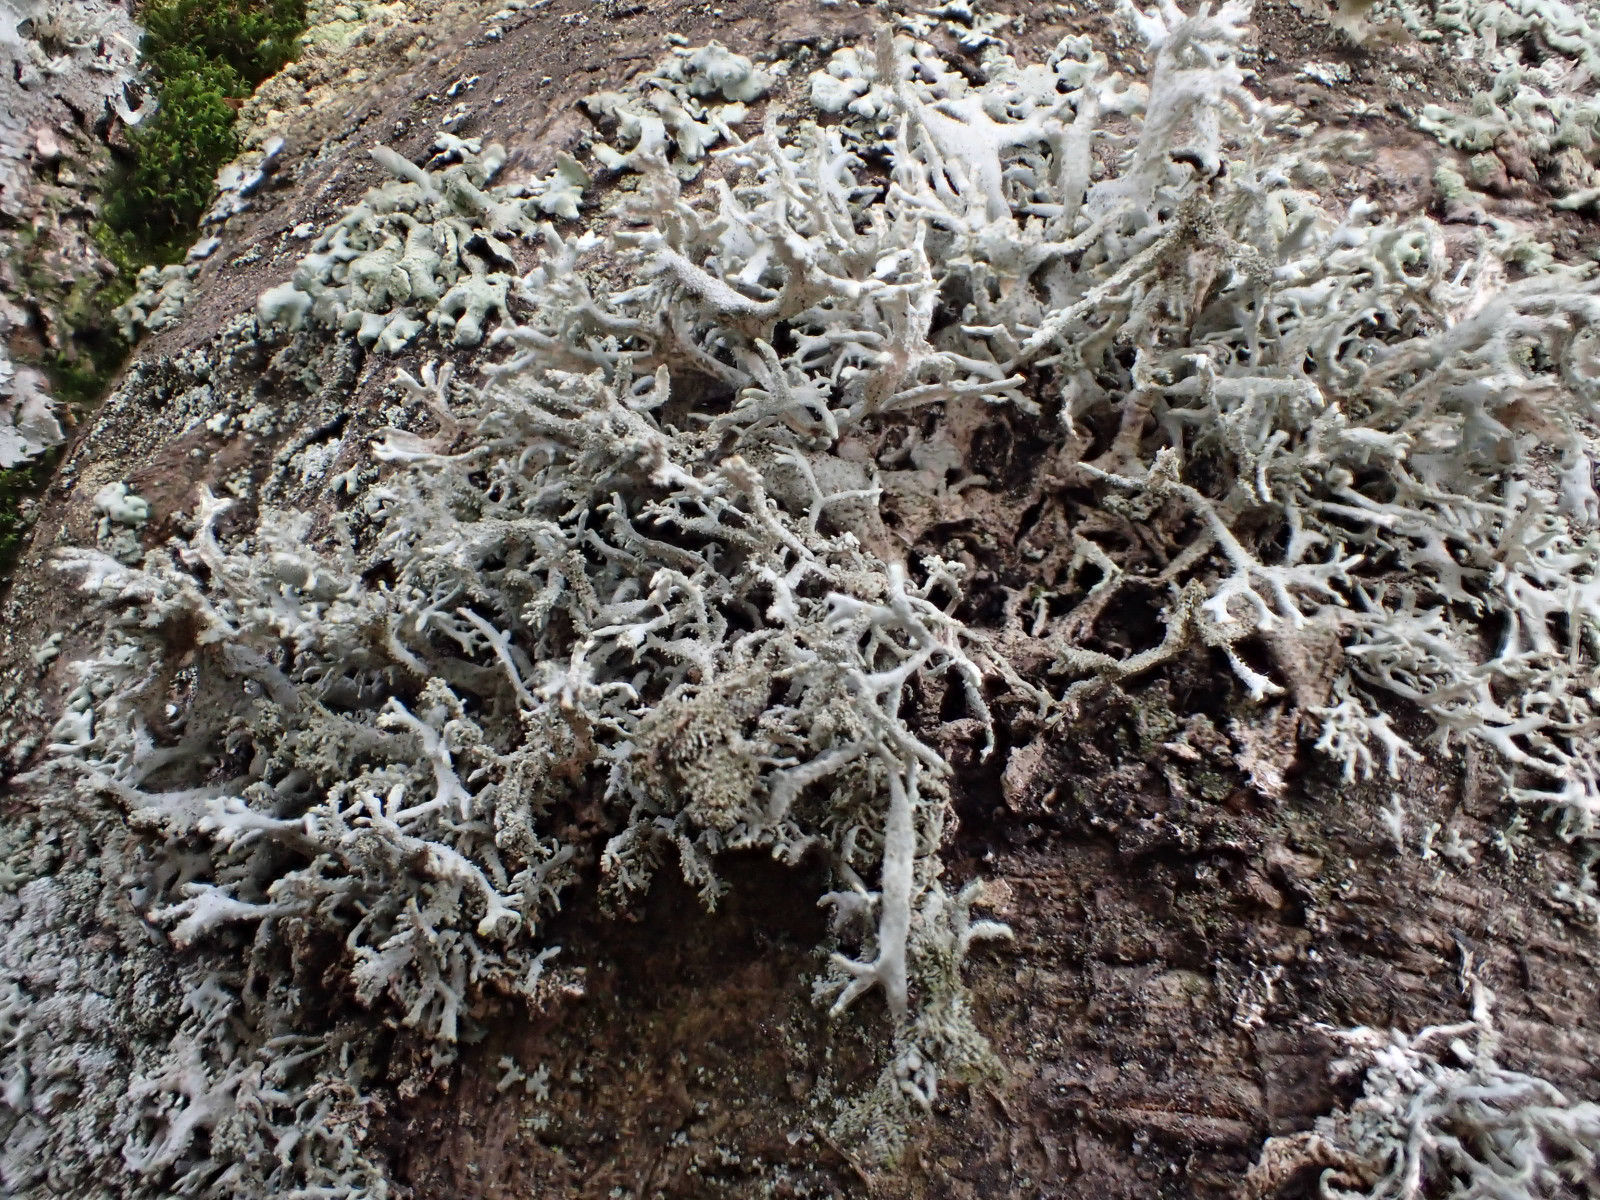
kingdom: Fungi
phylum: Ascomycota
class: Lecanoromycetes
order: Lecanorales
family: Parmeliaceae
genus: Pseudevernia
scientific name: Pseudevernia furfuracea
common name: grå fyrrelav
